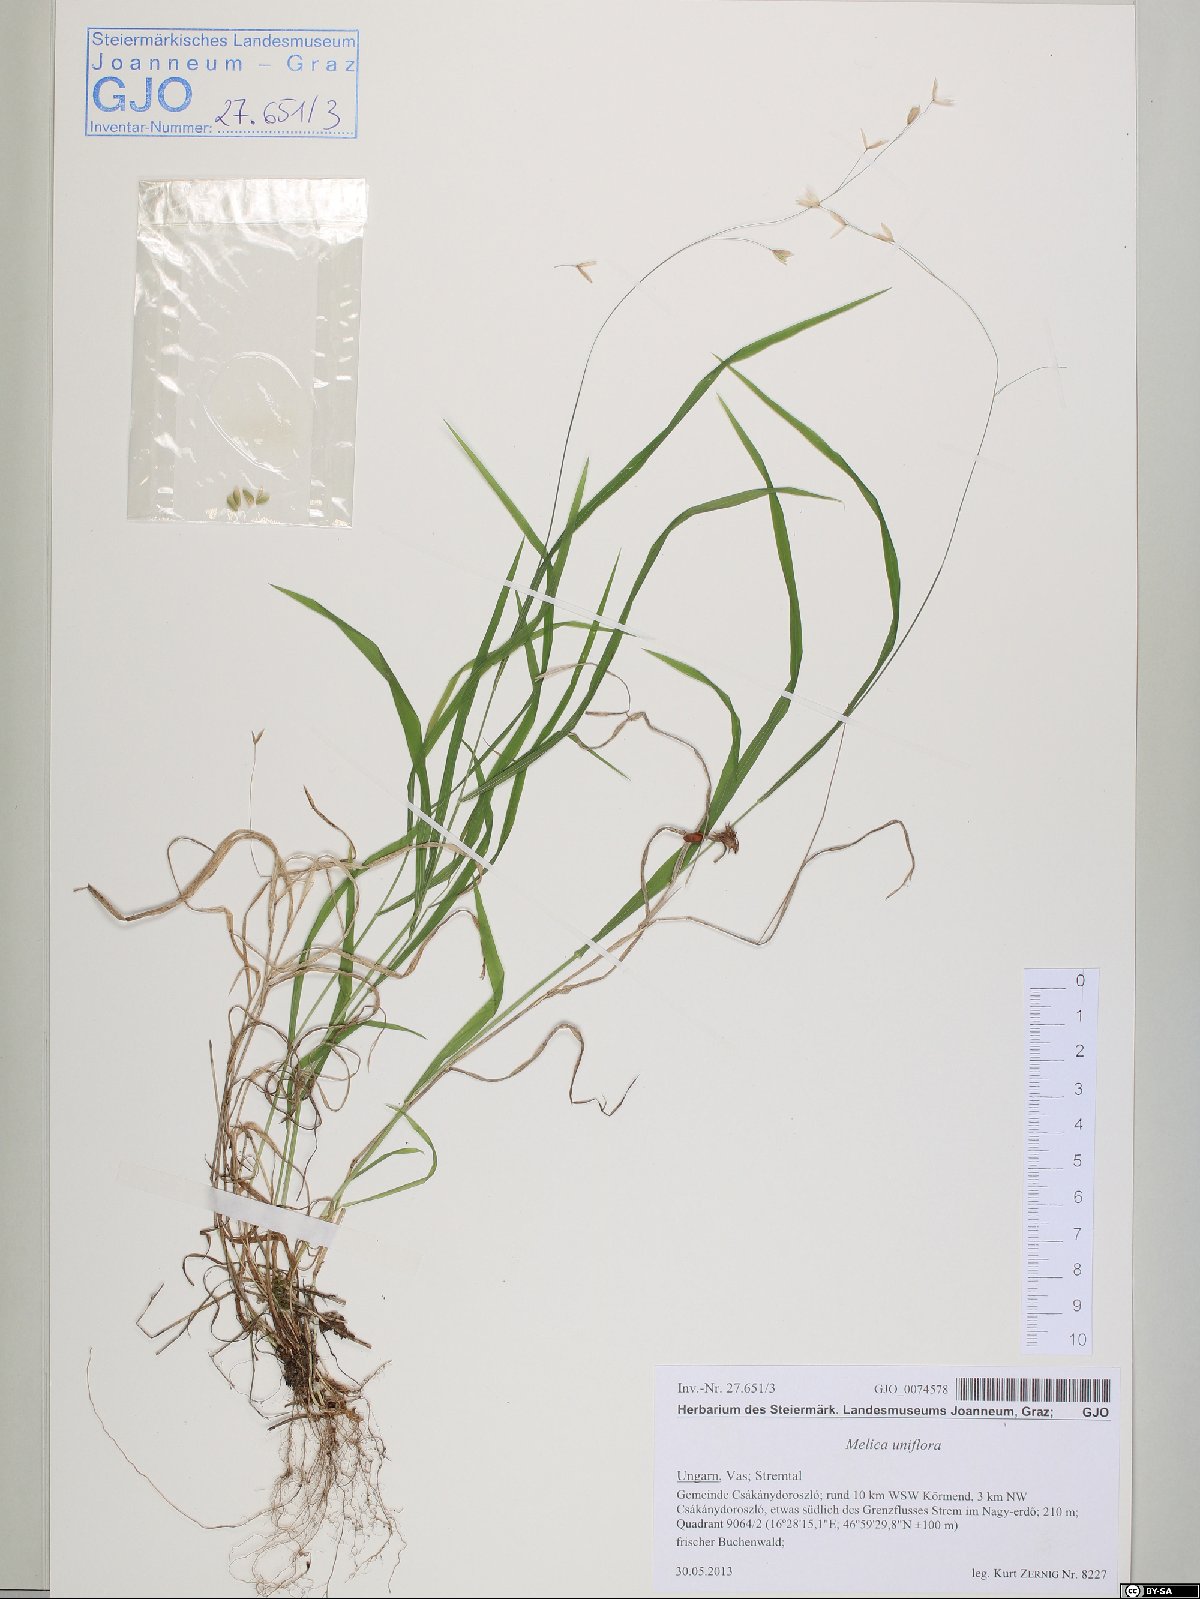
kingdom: Plantae
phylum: Tracheophyta
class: Liliopsida
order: Poales
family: Poaceae
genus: Melica
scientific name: Melica uniflora
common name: Wood melick
